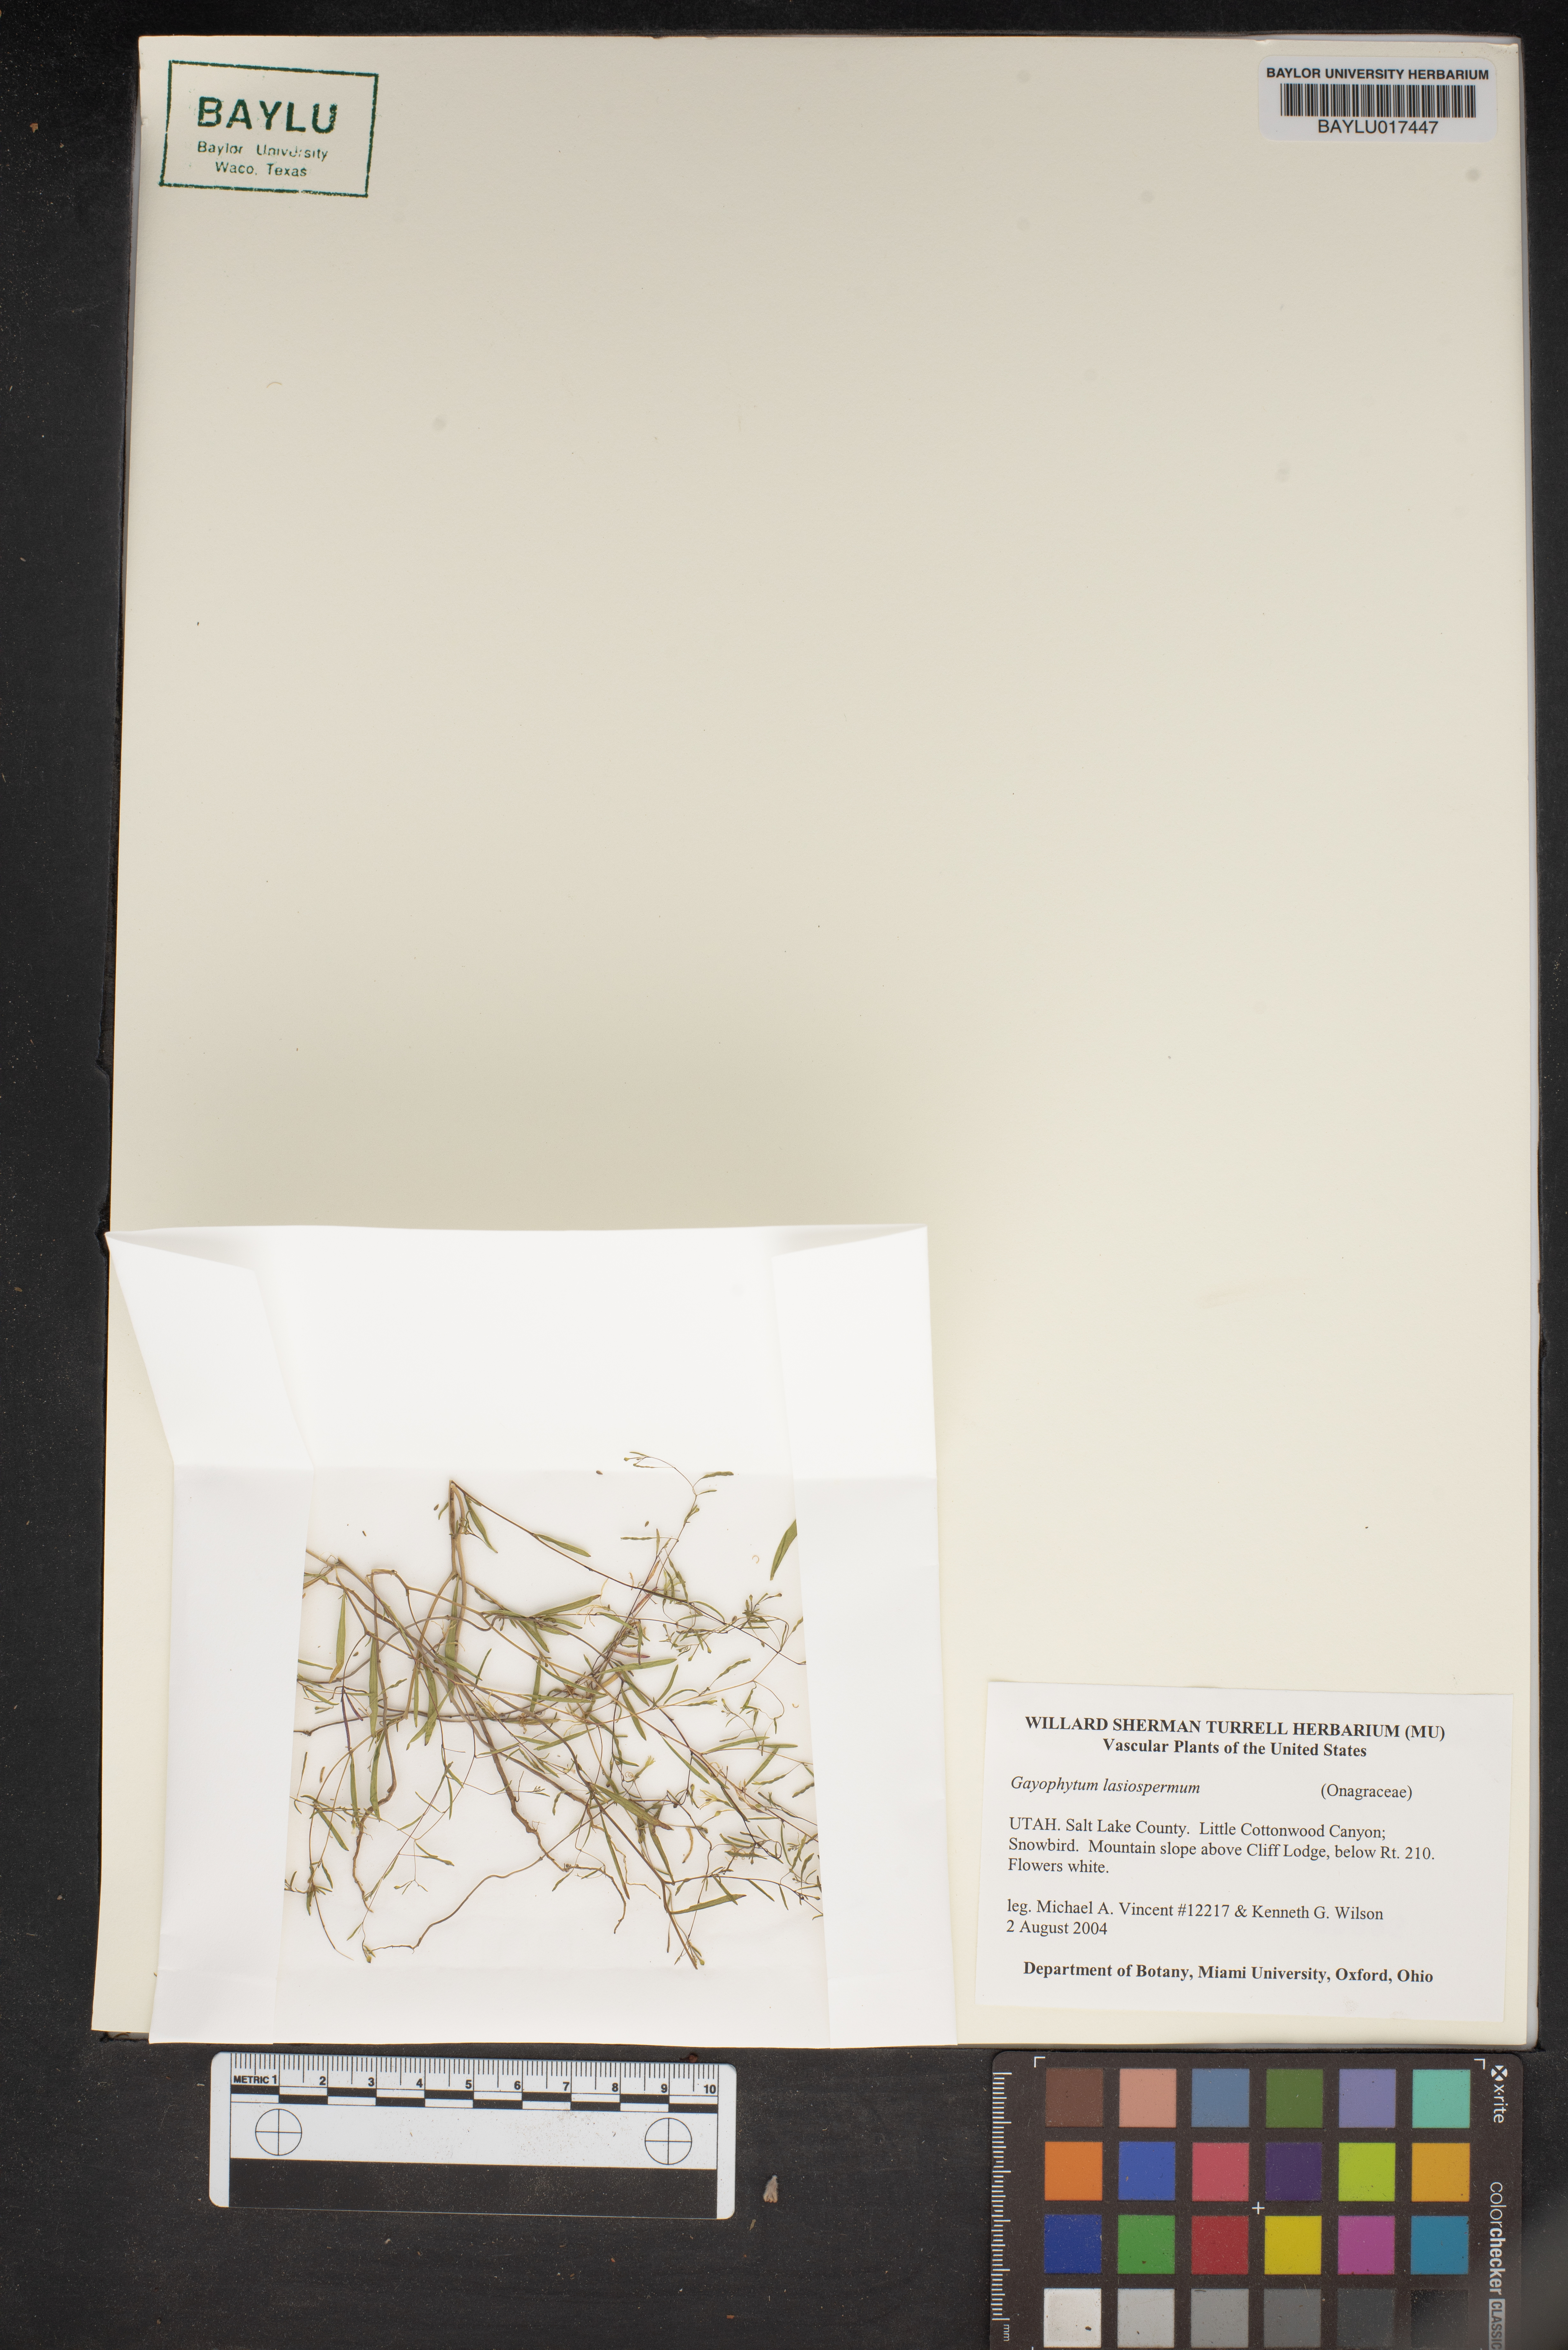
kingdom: Plantae
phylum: Tracheophyta
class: Magnoliopsida
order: Myrtales
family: Onagraceae
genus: Gayophytum
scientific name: Gayophytum diffusum
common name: Big-flowered groundsmoke
